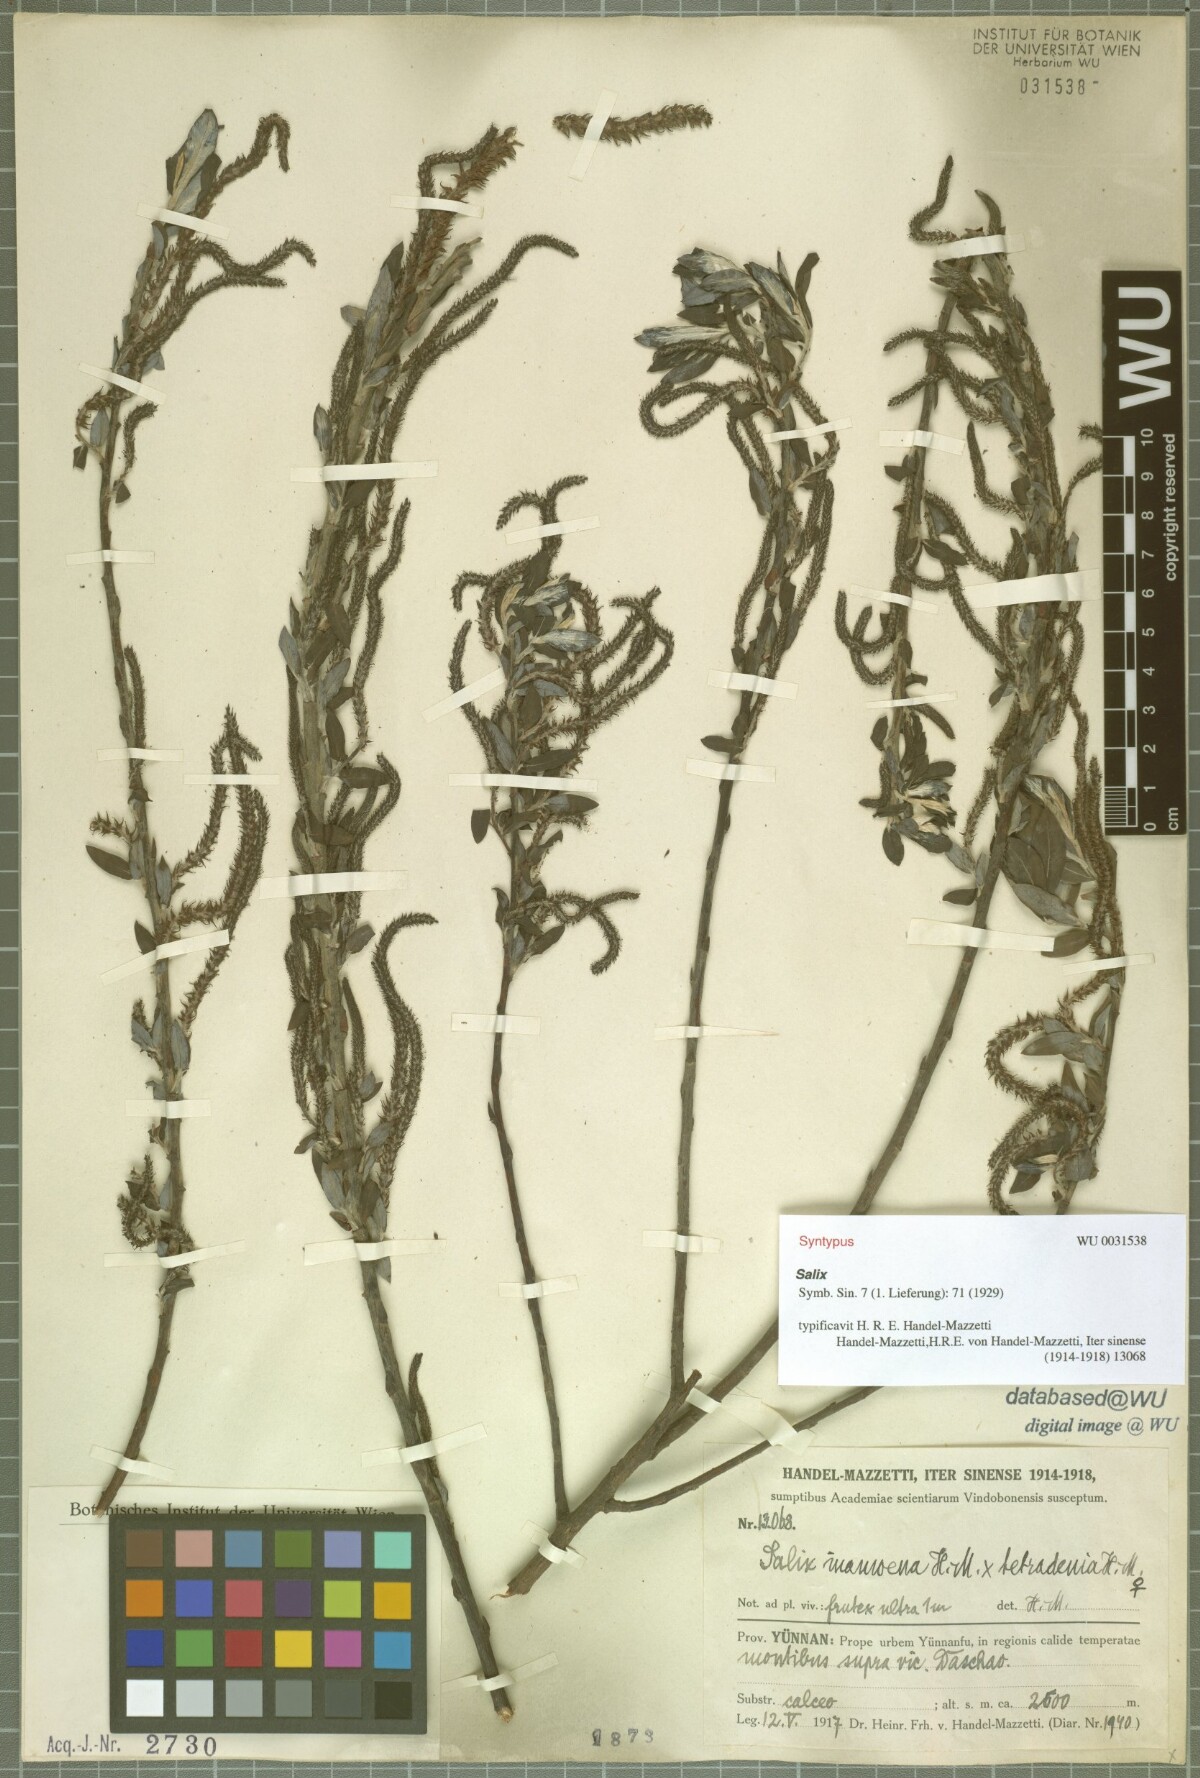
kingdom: Plantae
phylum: Tracheophyta
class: Magnoliopsida
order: Malpighiales
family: Salicaceae
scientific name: Salicaceae
